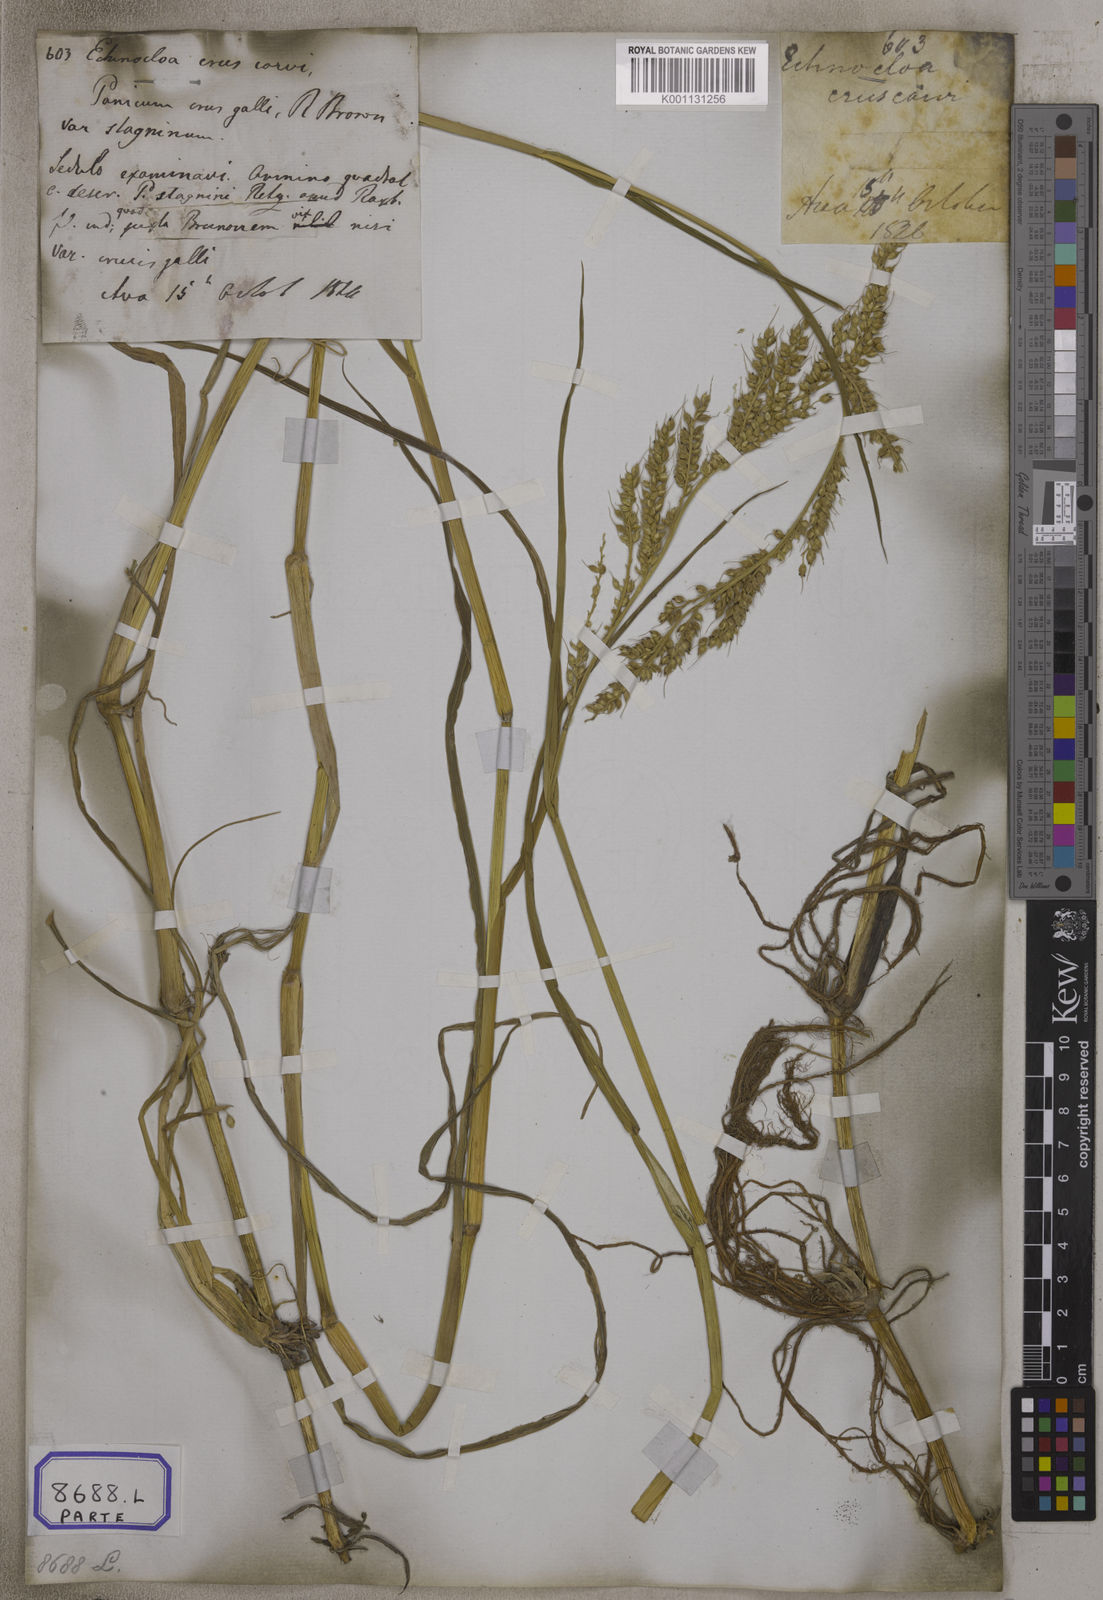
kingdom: Plantae
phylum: Tracheophyta
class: Liliopsida
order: Poales
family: Poaceae
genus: Echinochloa
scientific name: Echinochloa stagnina
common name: Burgu grass
